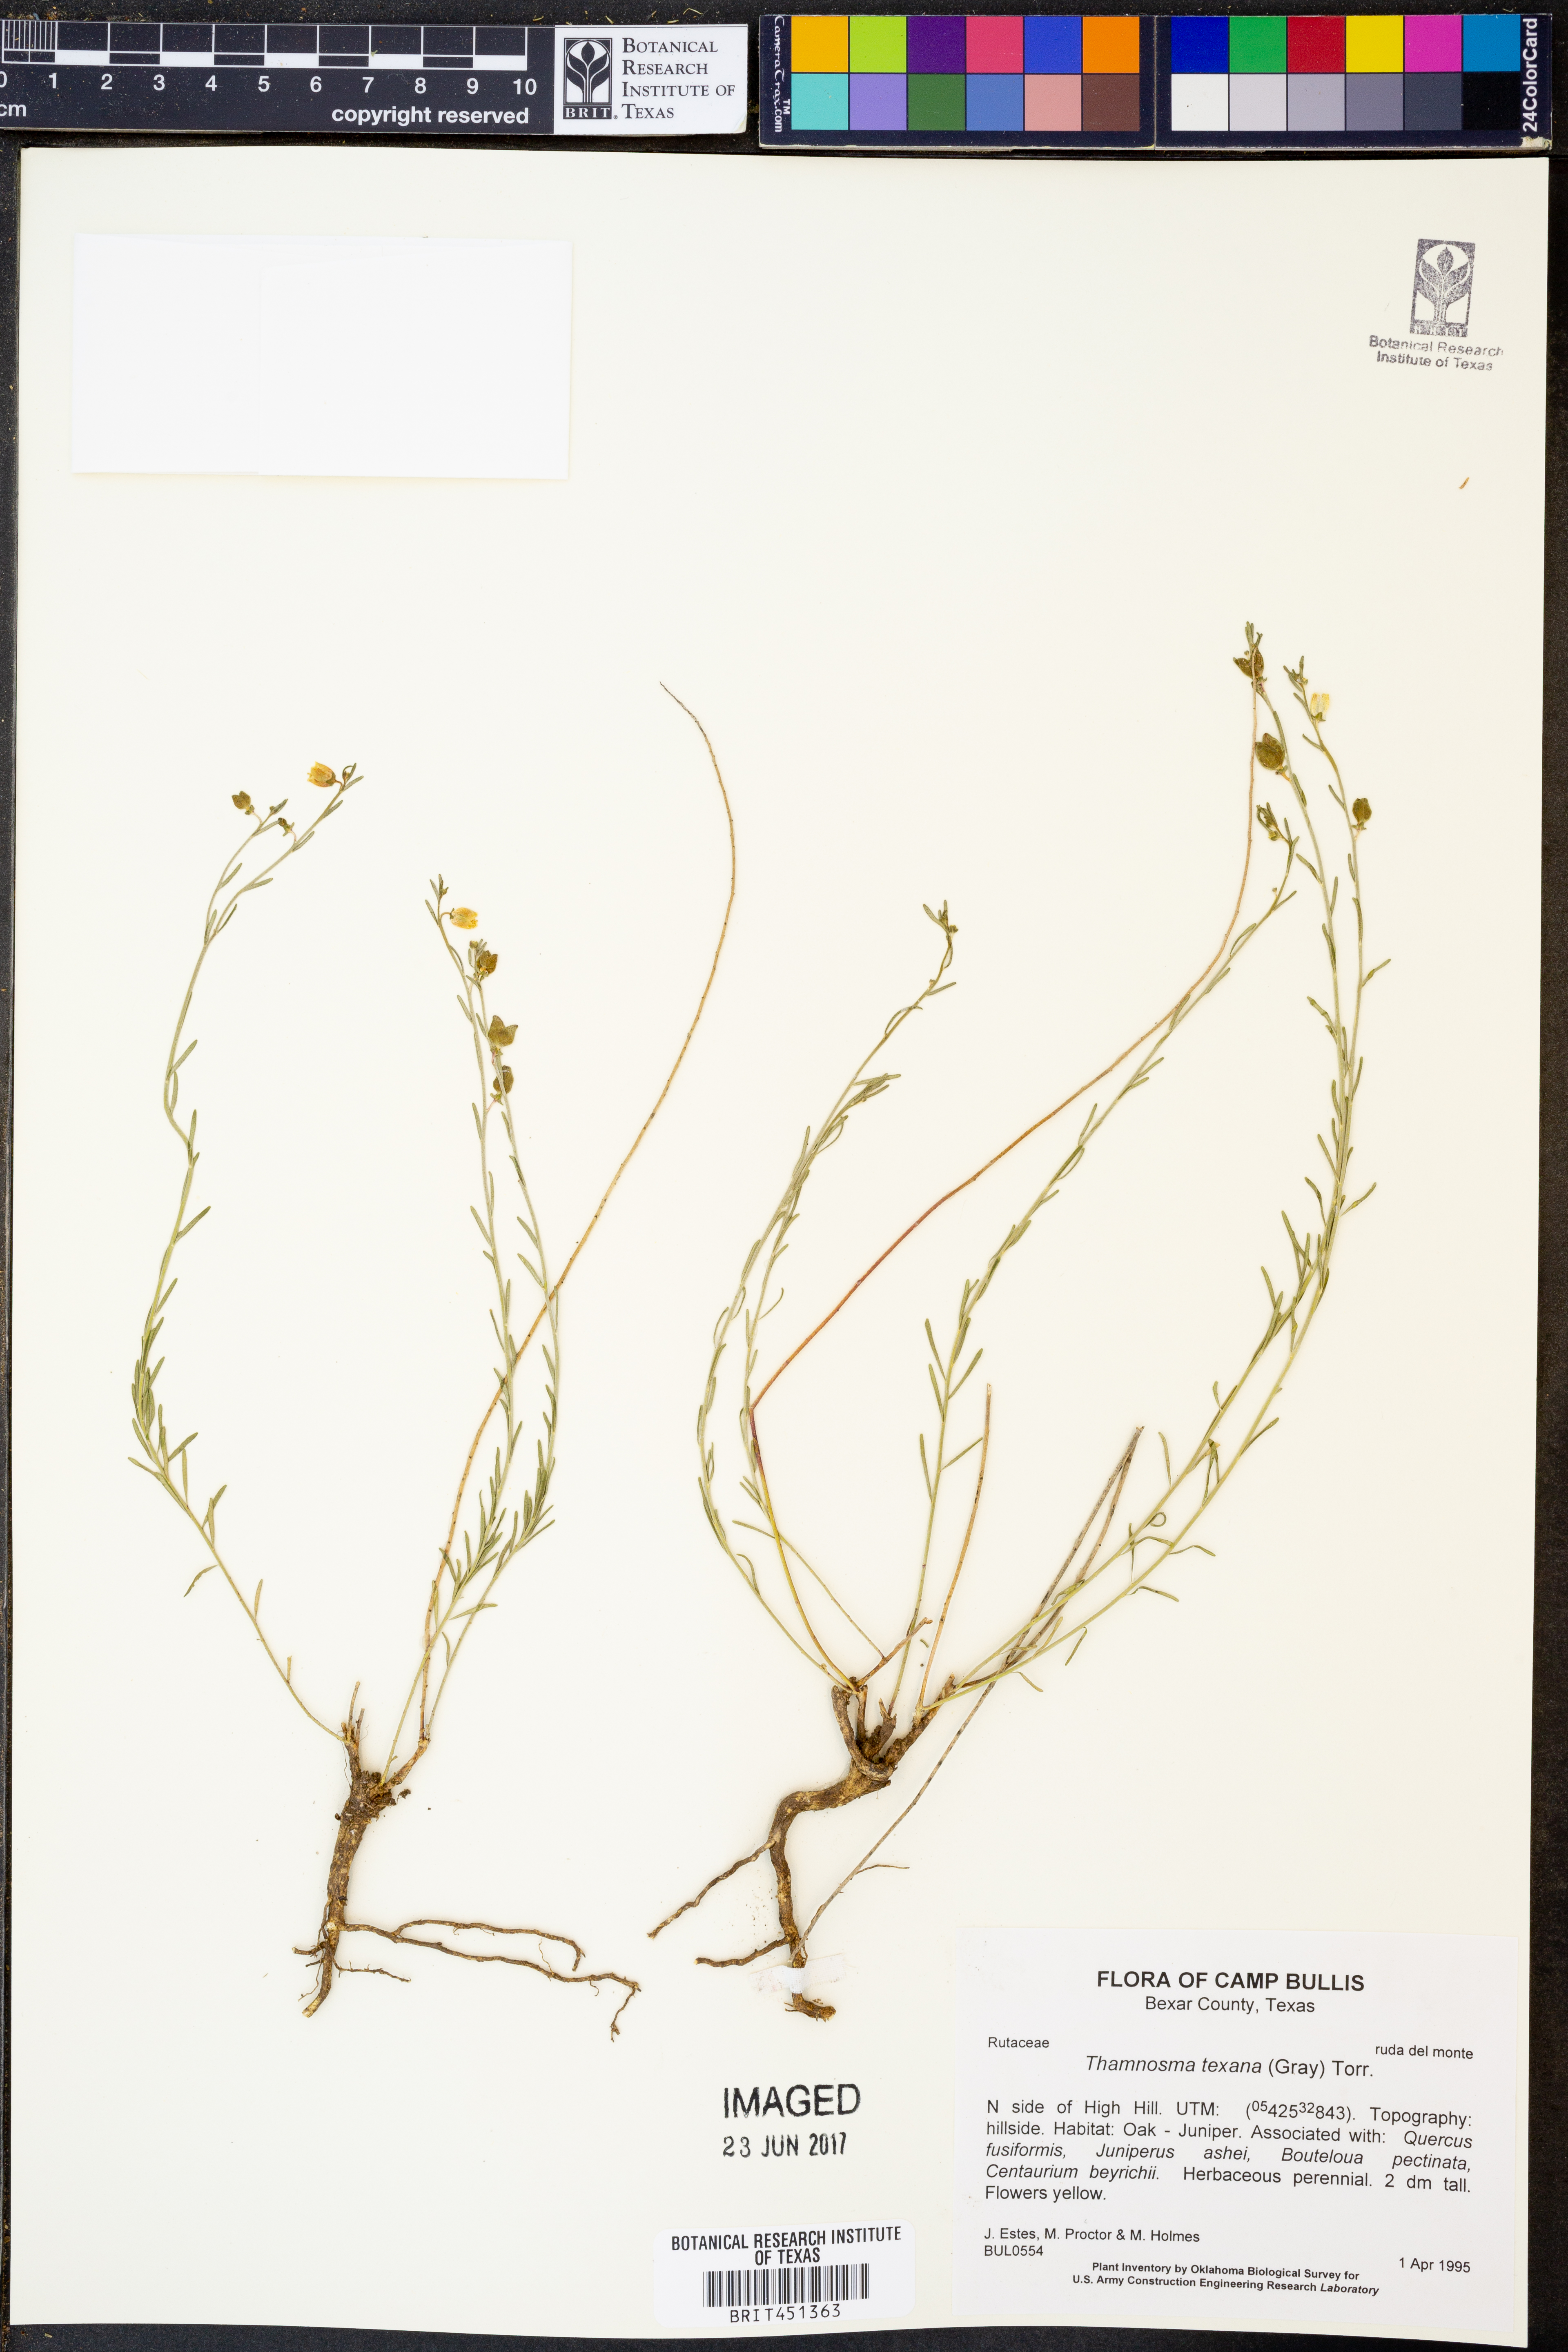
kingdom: Plantae
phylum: Tracheophyta
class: Magnoliopsida
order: Sapindales
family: Rutaceae
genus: Thamnosma
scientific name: Thamnosma texana
